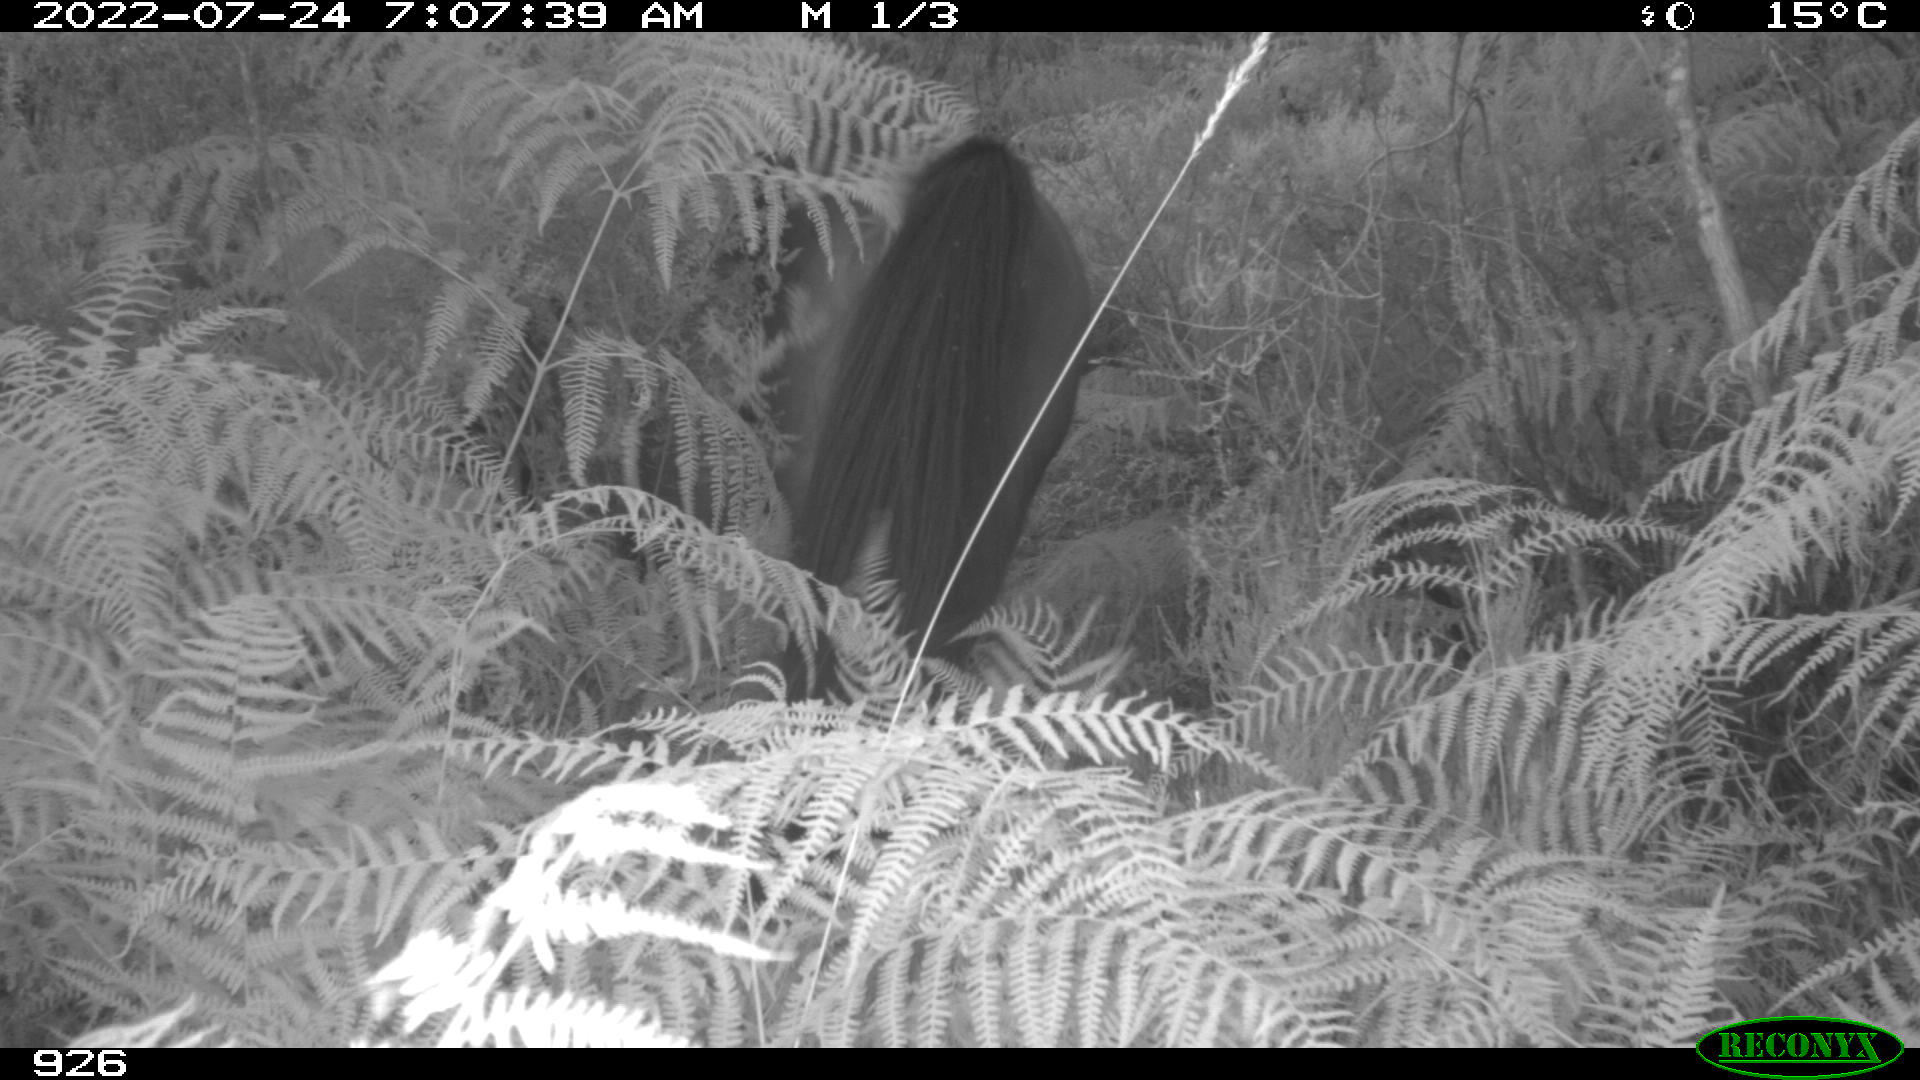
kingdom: Animalia
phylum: Chordata
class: Mammalia
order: Perissodactyla
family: Equidae
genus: Equus
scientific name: Equus caballus
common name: Horse
